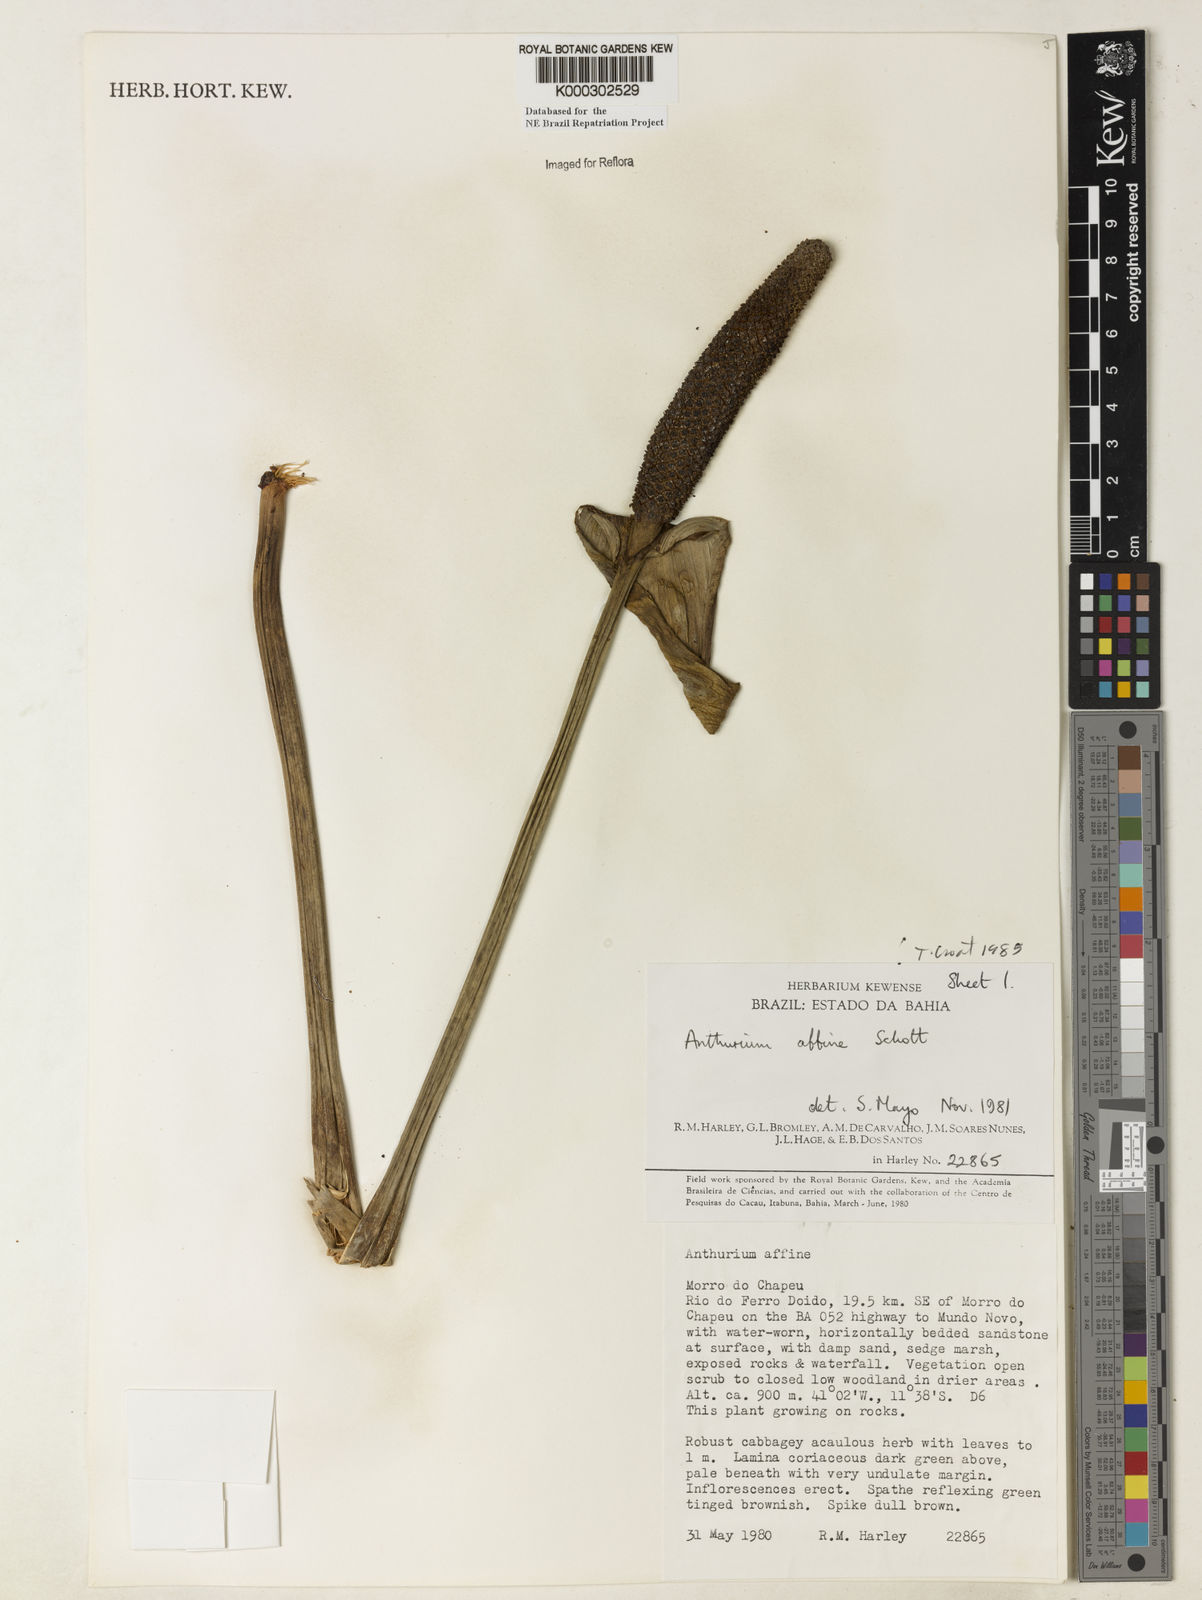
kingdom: Plantae
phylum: Tracheophyta
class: Liliopsida
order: Alismatales
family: Araceae
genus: Anthurium
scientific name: Anthurium affine
